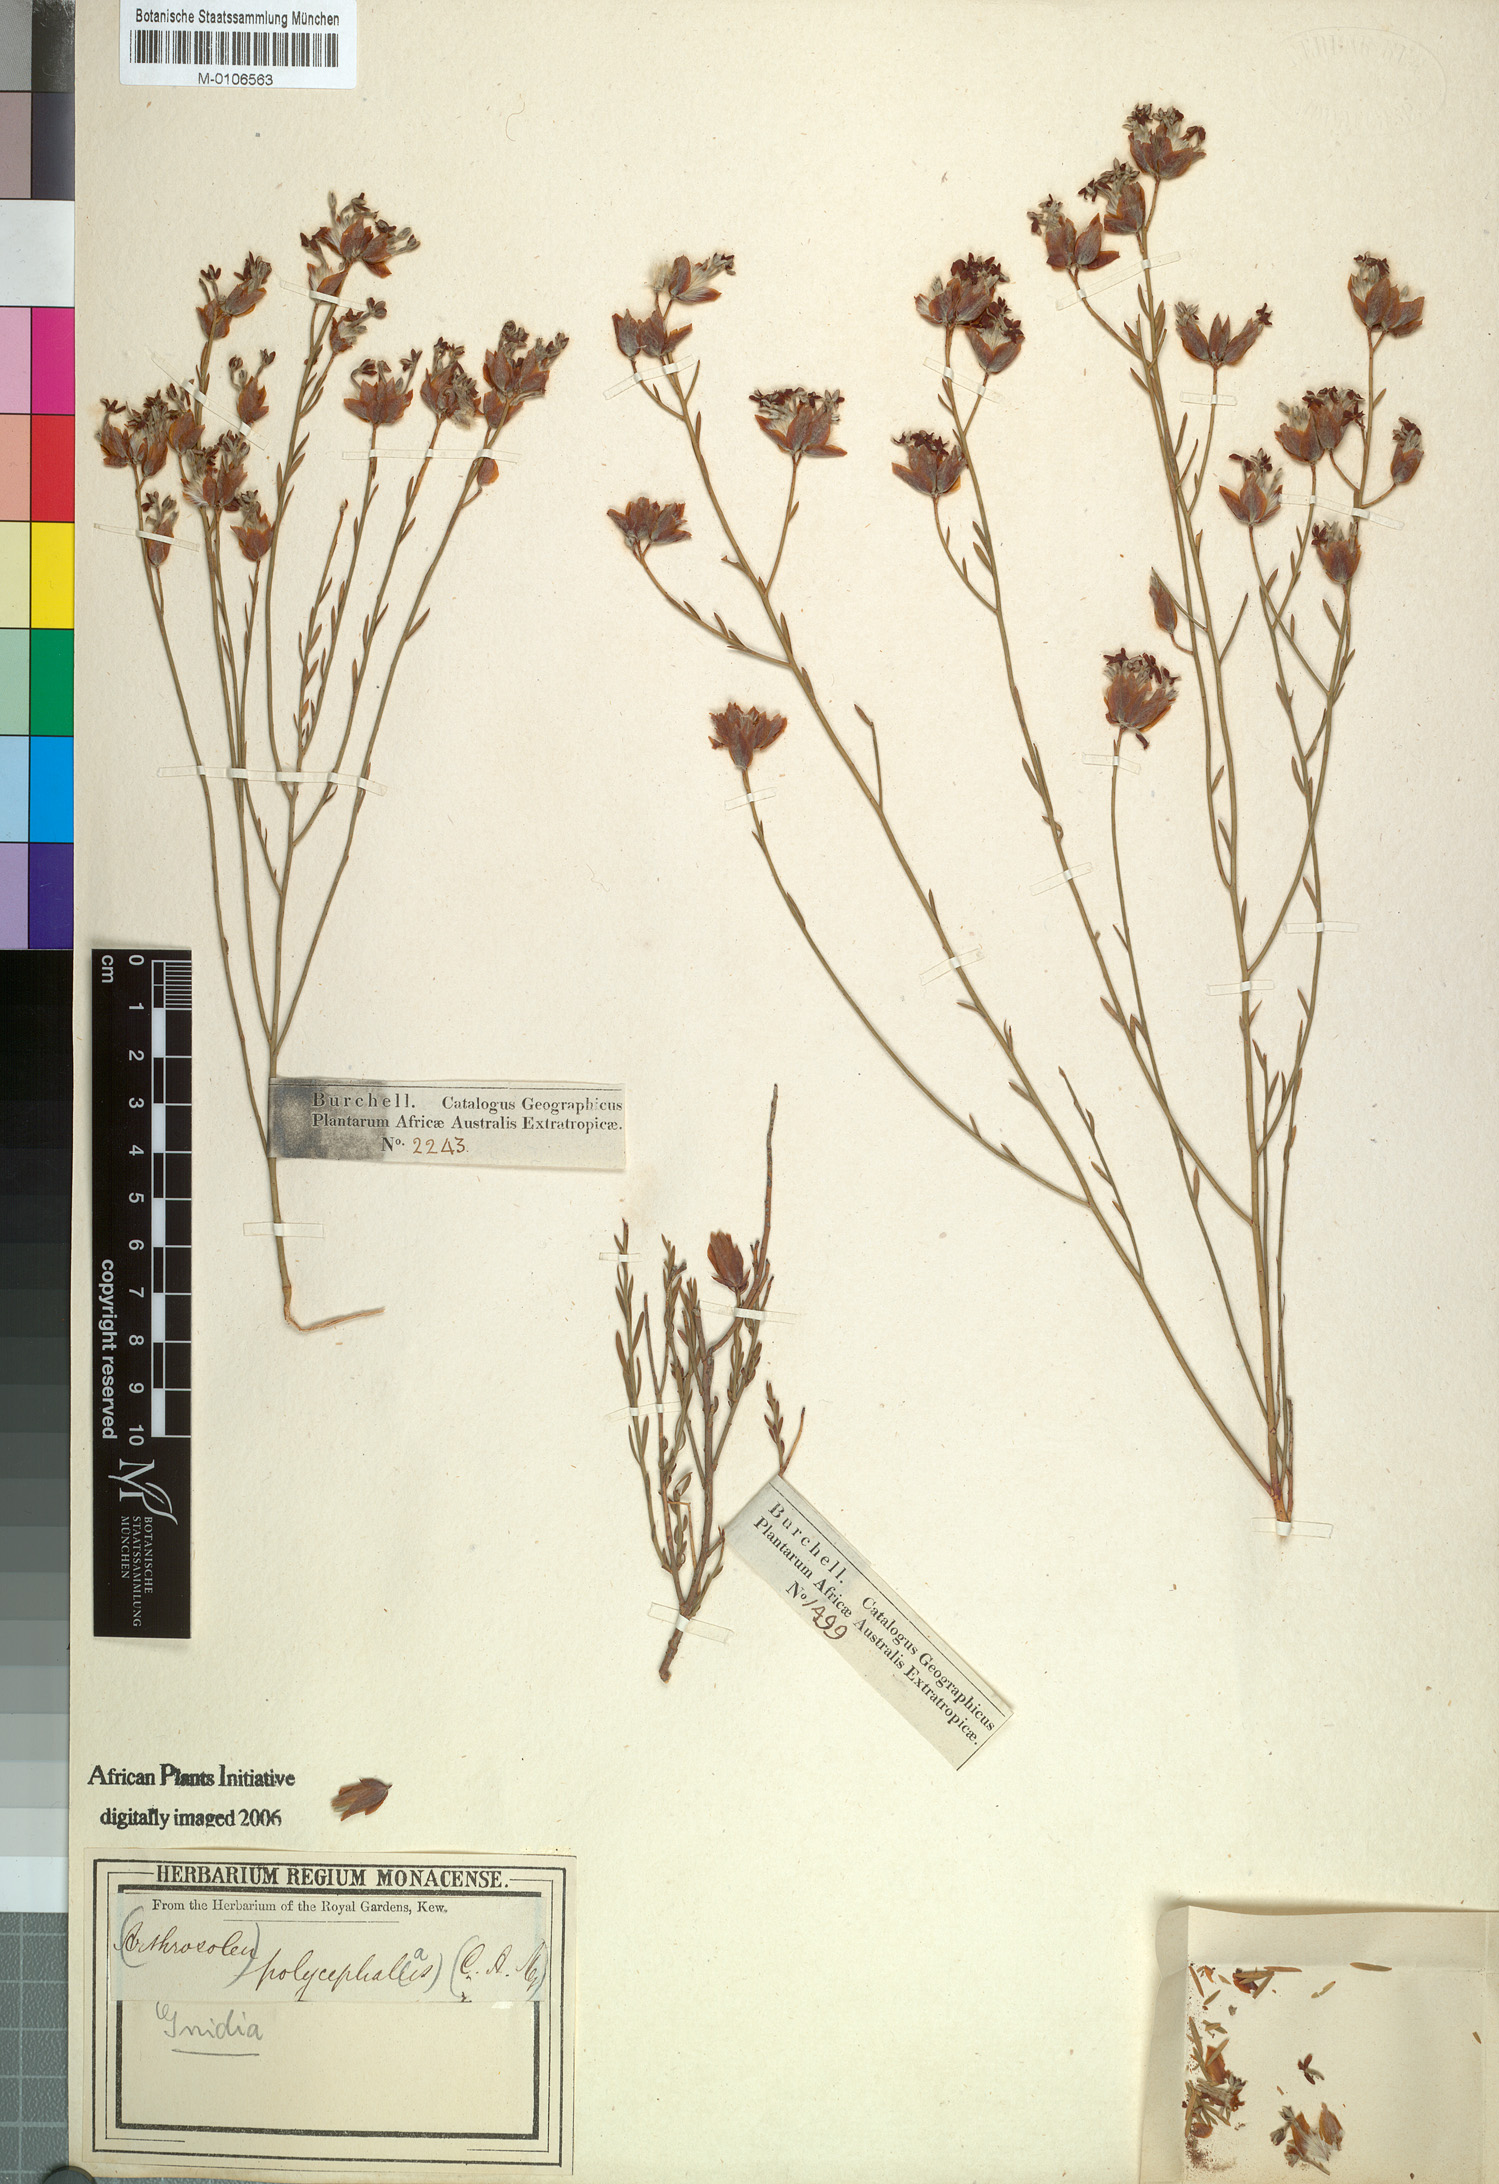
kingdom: Plantae
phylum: Tracheophyta
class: Magnoliopsida
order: Malvales
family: Thymelaeaceae
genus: Gnidia
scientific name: Gnidia polycephala
